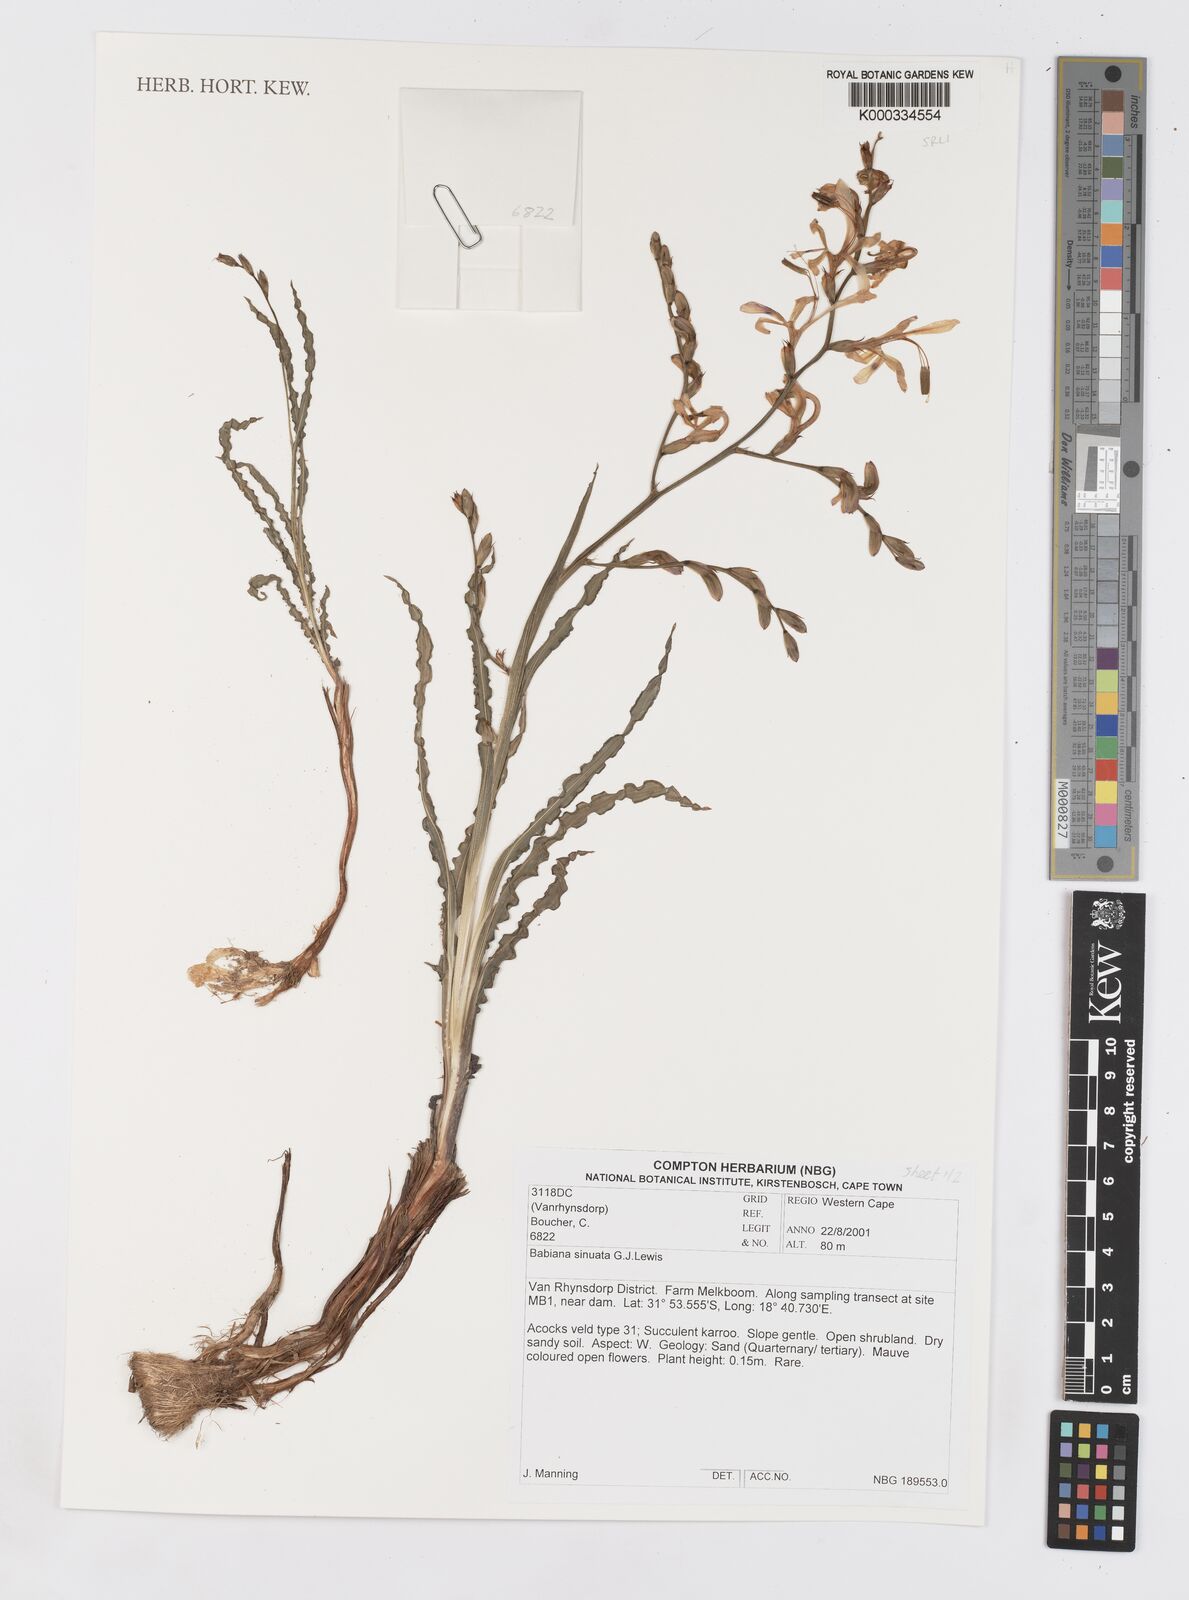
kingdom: Plantae
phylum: Tracheophyta
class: Liliopsida
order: Asparagales
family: Iridaceae
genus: Babiana
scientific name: Babiana
